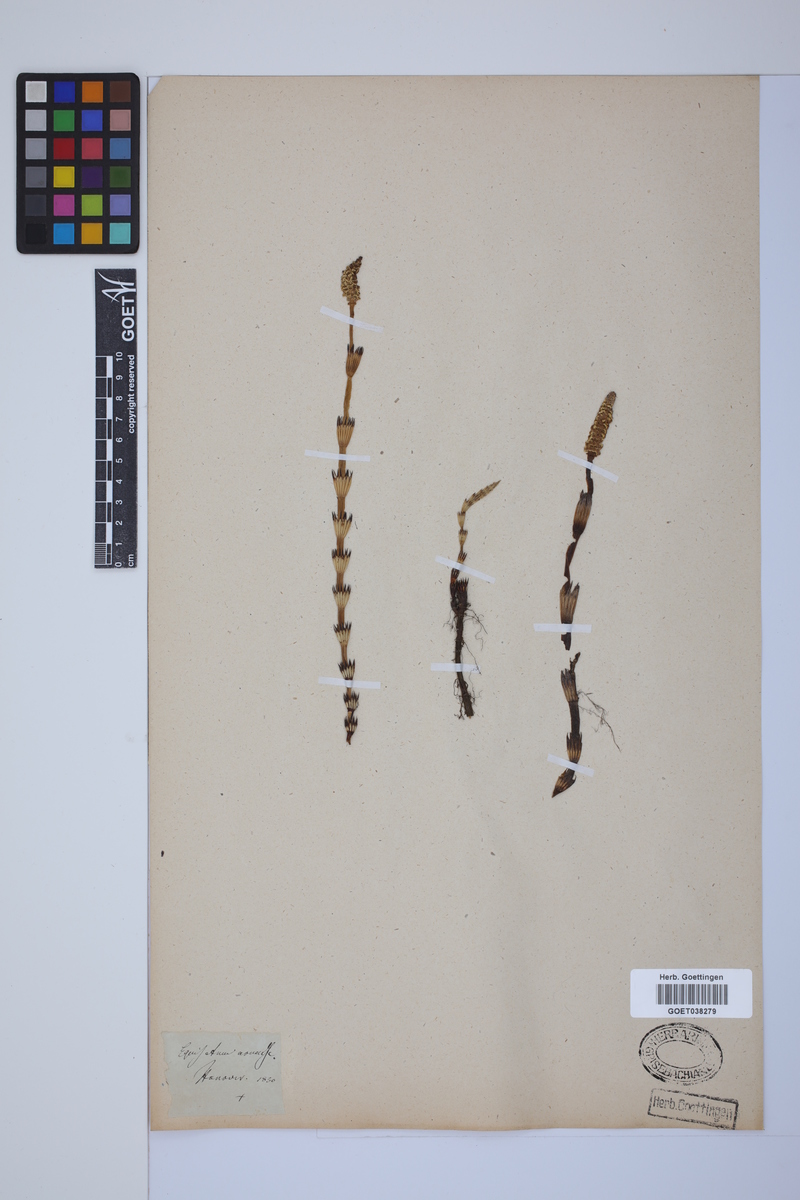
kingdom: Plantae
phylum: Tracheophyta
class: Polypodiopsida
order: Equisetales
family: Equisetaceae
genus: Equisetum
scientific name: Equisetum arvense
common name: Field horsetail
